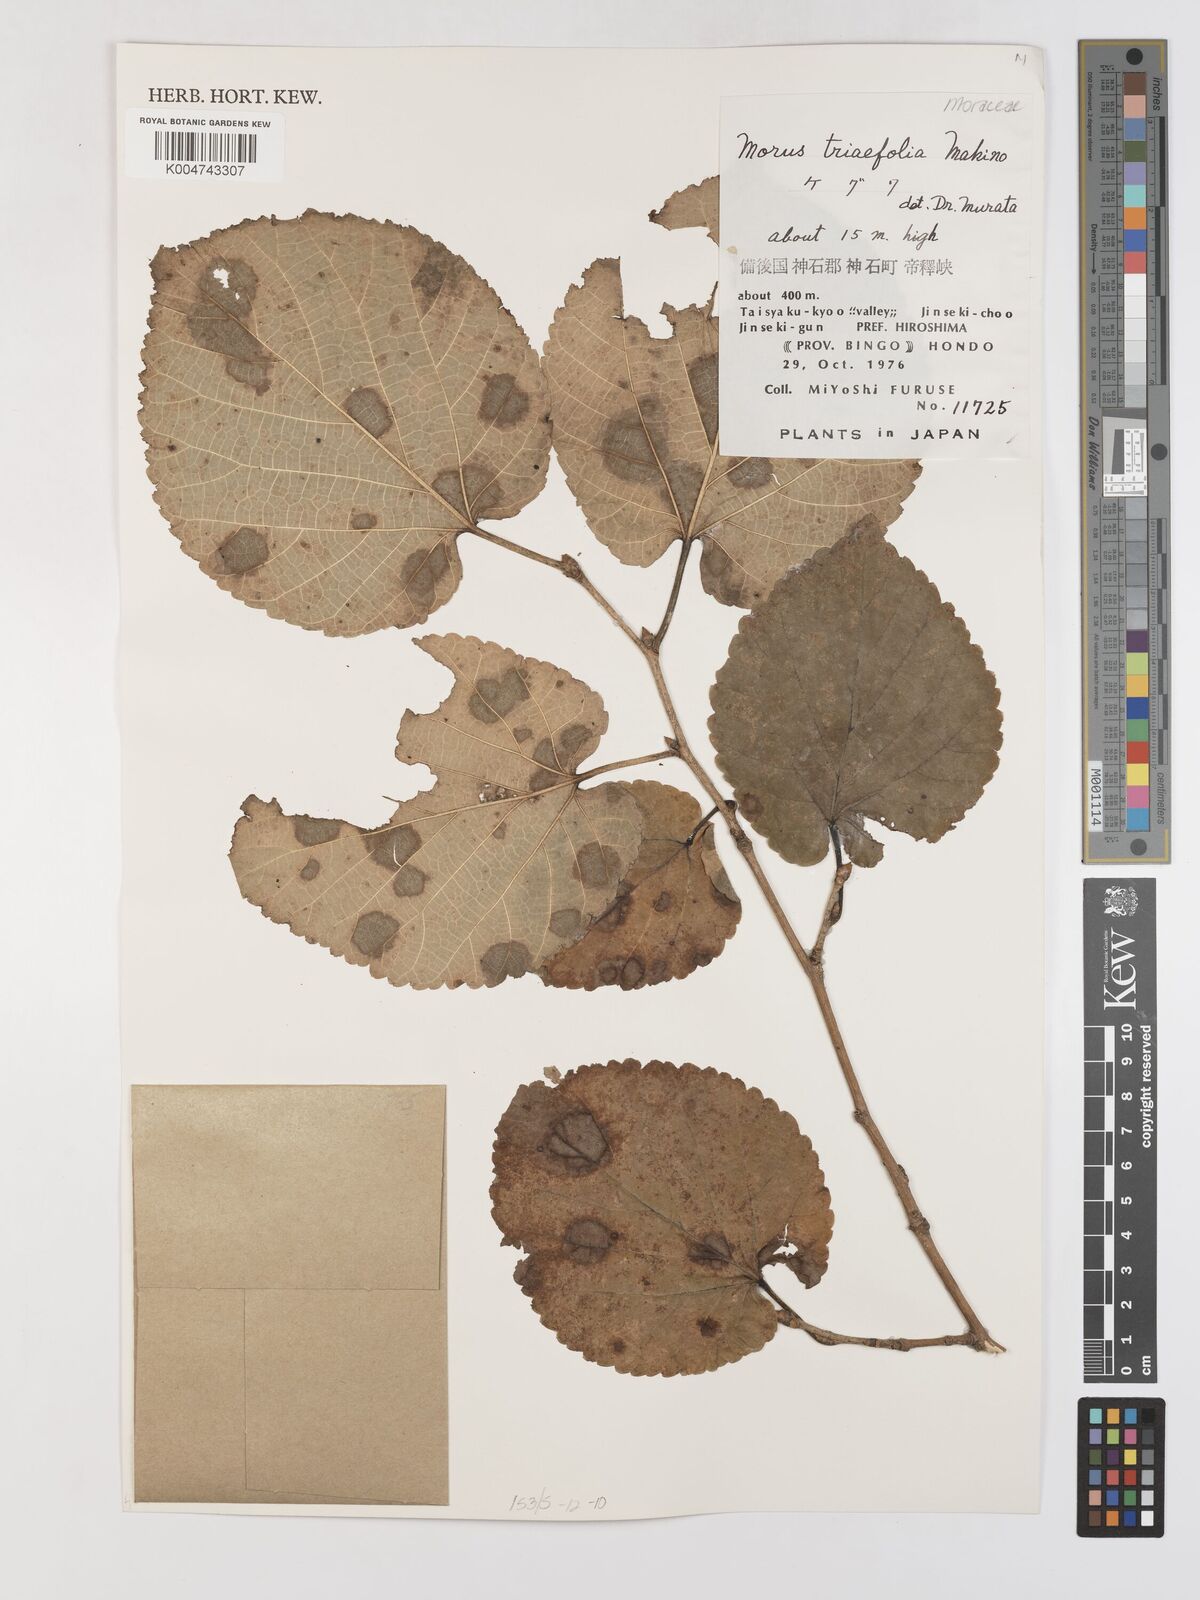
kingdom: Plantae
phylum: Tracheophyta
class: Magnoliopsida
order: Rosales
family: Moraceae
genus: Morus
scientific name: Morus cathayana
